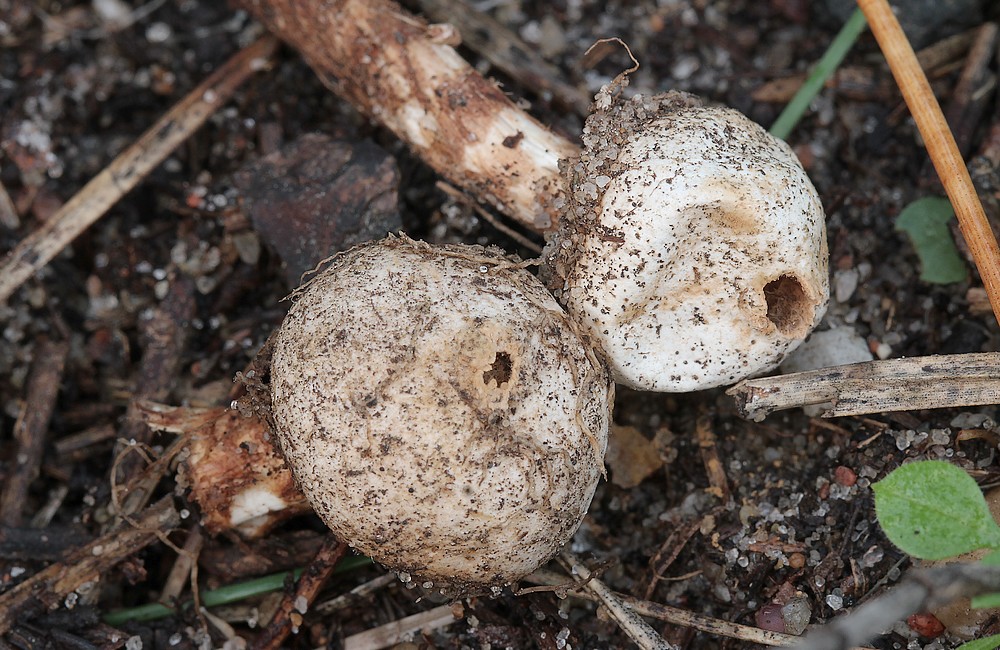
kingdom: Fungi
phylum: Basidiomycota
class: Agaricomycetes
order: Agaricales
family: Agaricaceae
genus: Tulostoma
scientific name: Tulostoma fimbriatum
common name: frynset stilkbovist
